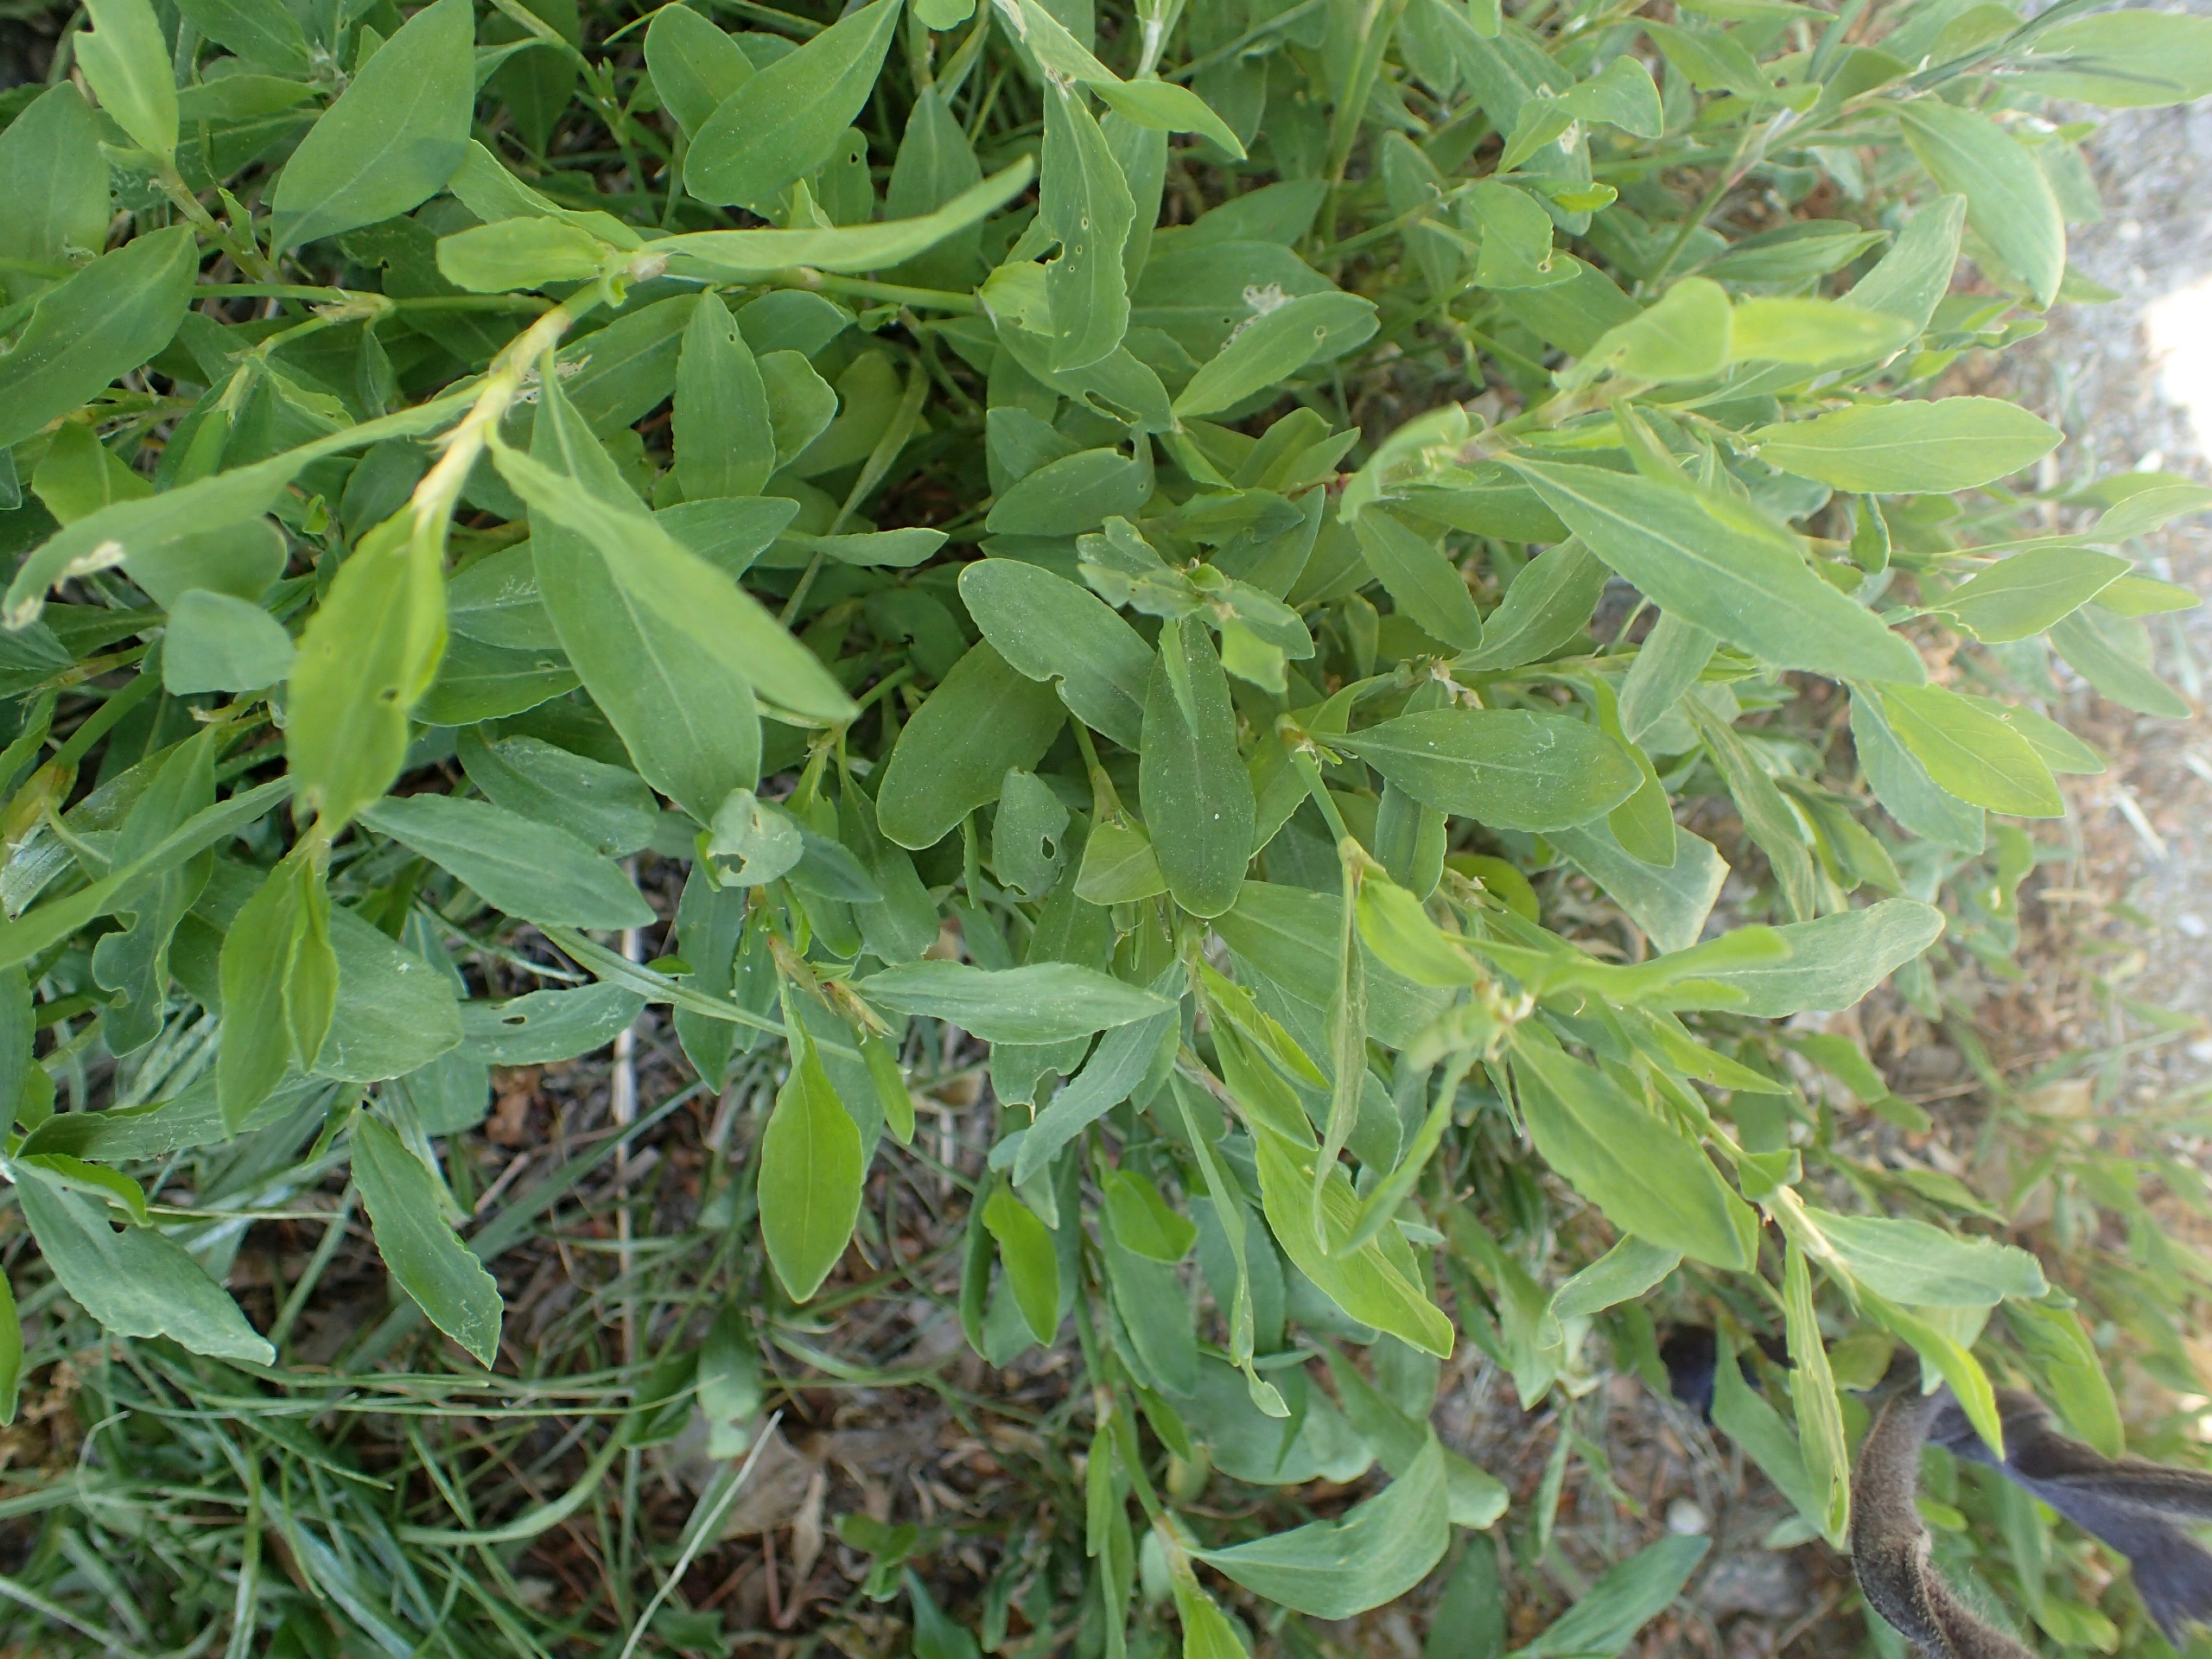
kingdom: Plantae
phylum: Tracheophyta
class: Magnoliopsida
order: Caryophyllales
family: Polygonaceae
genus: Polygonum
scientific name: Polygonum aviculare
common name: Vej-pileurt (underart)
